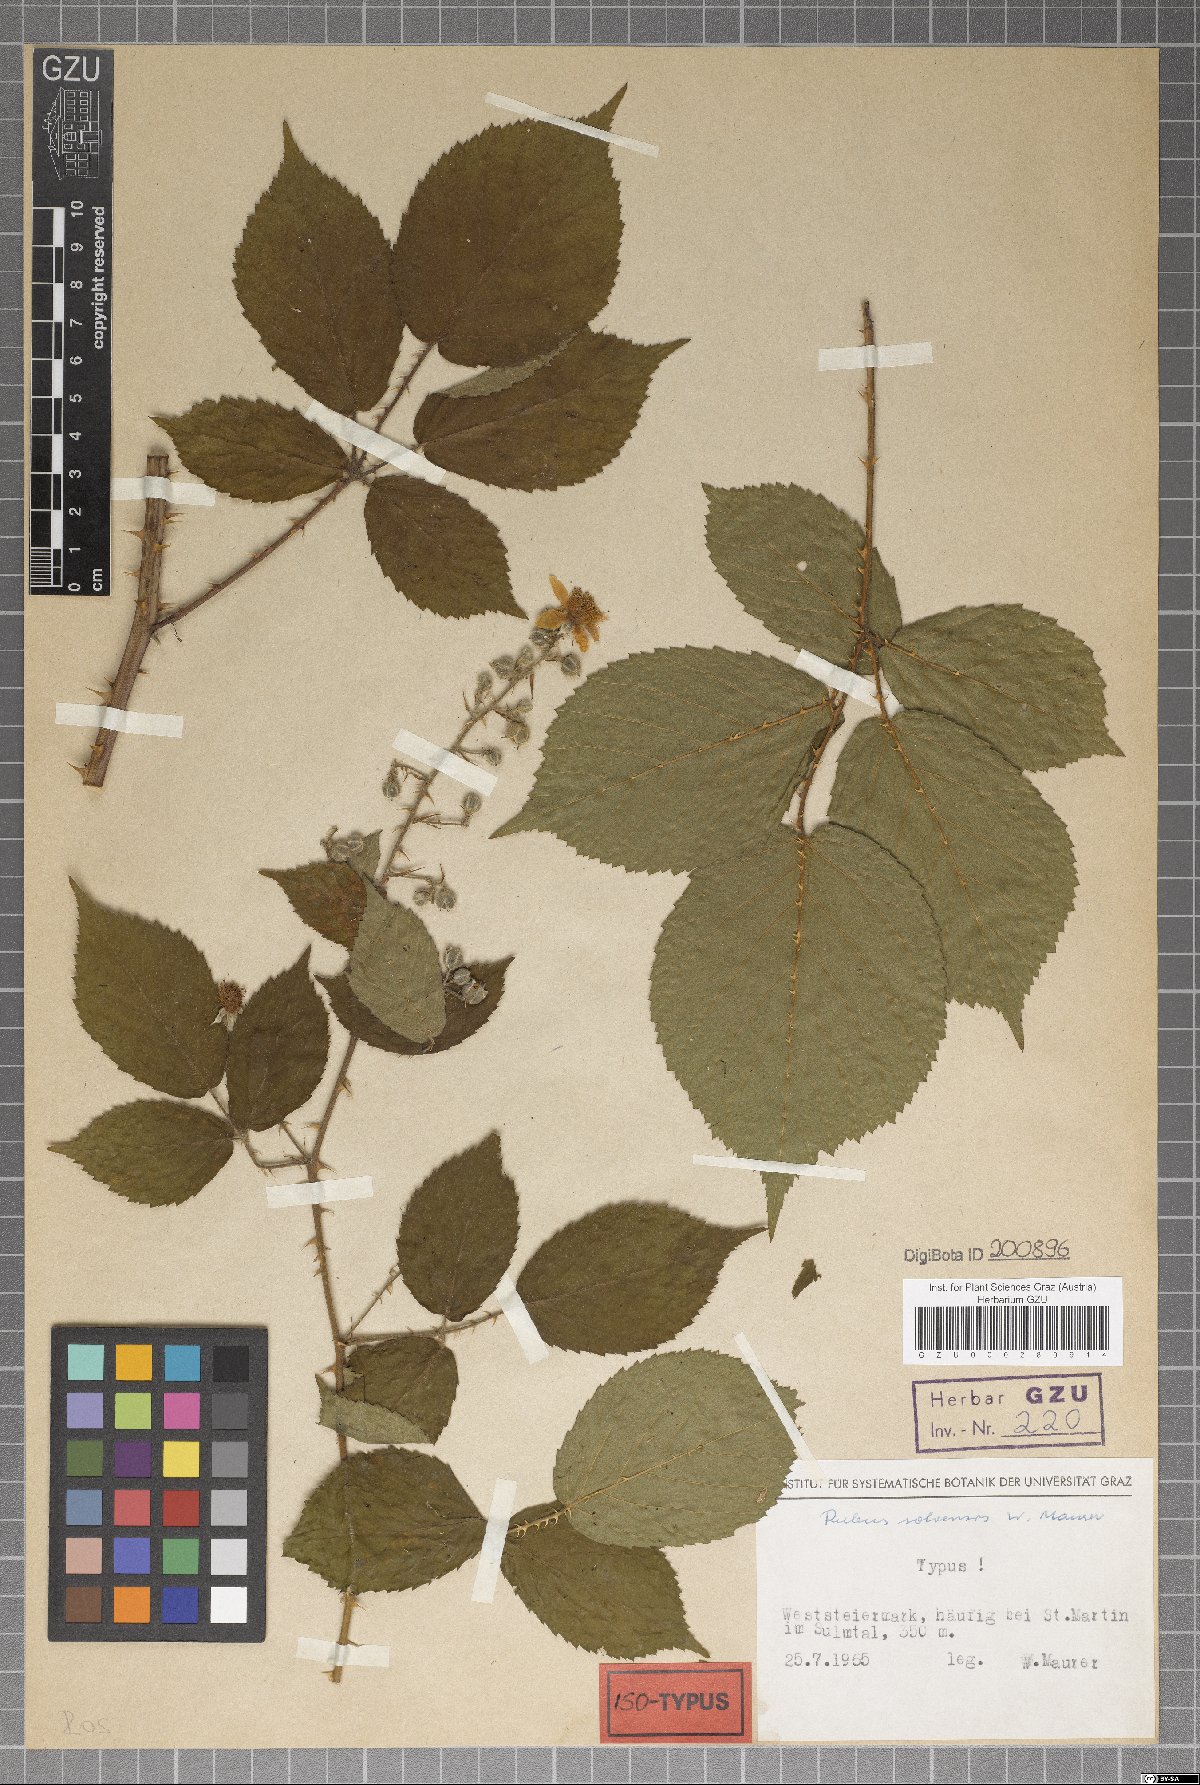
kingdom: Plantae
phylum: Tracheophyta
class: Magnoliopsida
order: Rosales
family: Rosaceae
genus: Rubus
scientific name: Rubus solvensis
